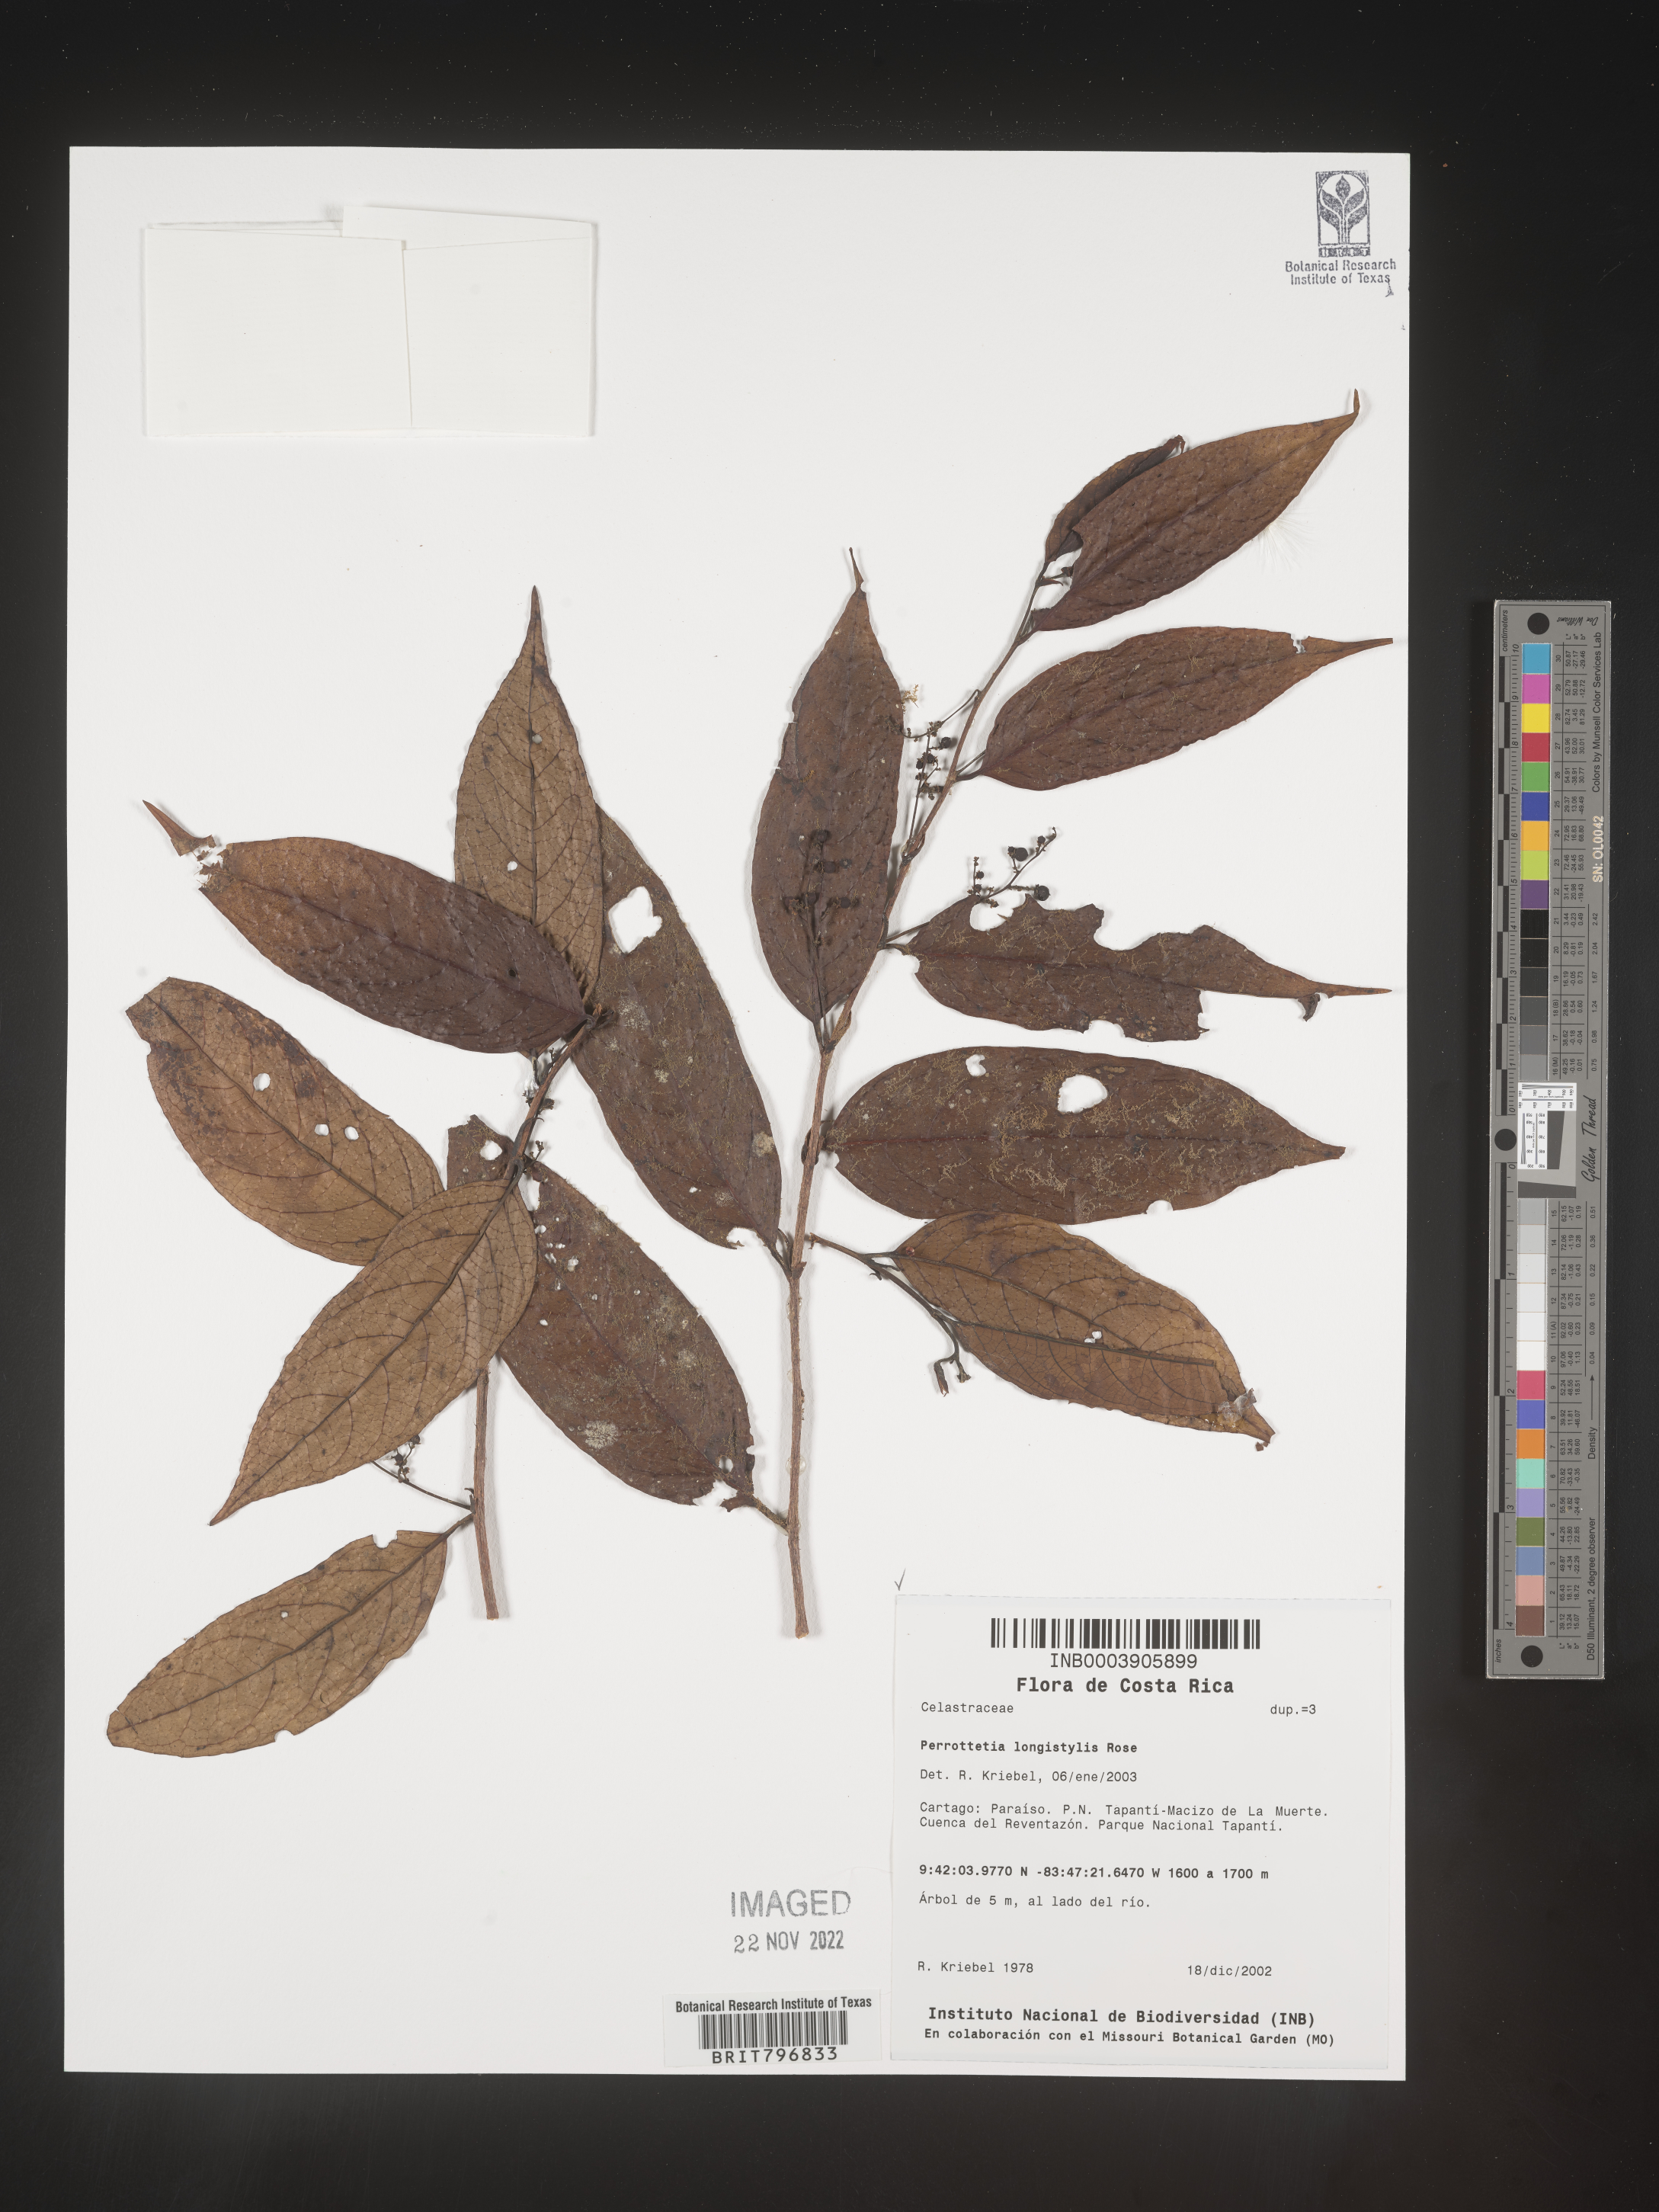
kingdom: Plantae
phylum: Tracheophyta
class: Magnoliopsida
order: Huerteales
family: Dipentodontaceae
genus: Perrottetia
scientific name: Perrottetia
